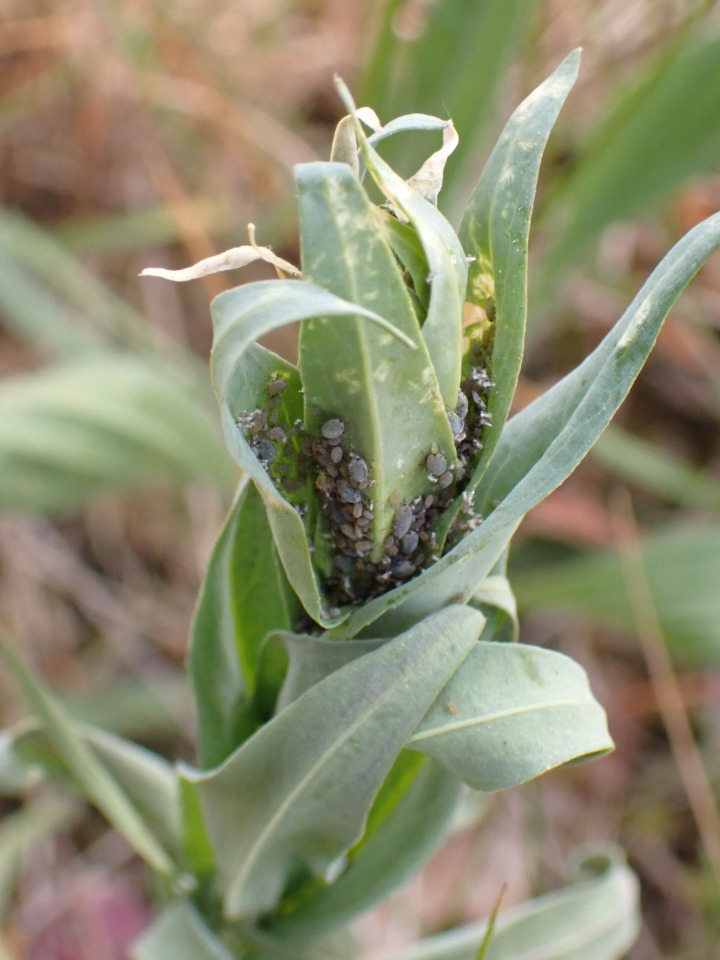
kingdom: Plantae
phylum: Tracheophyta
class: Magnoliopsida
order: Brassicales
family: Brassicaceae
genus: Turritis
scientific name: Turritis glabra
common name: Tårnurt
